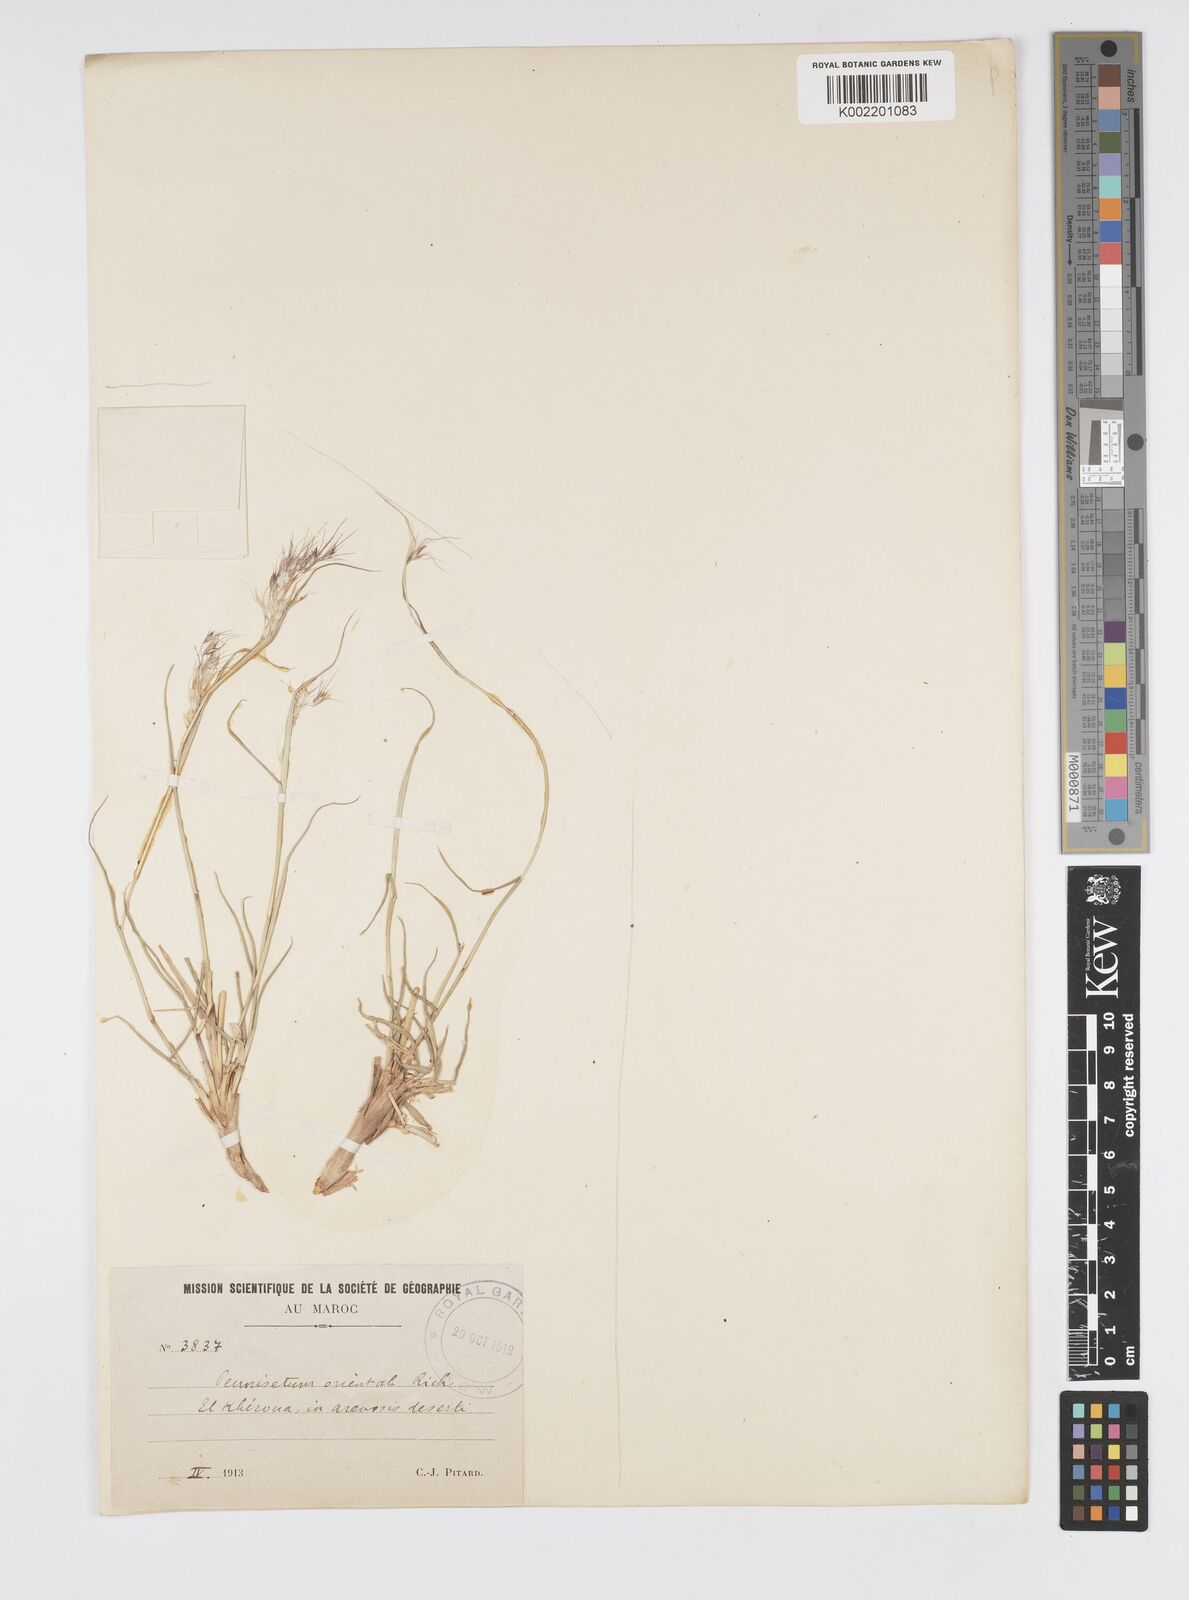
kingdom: Plantae
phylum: Tracheophyta
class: Liliopsida
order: Poales
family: Poaceae
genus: Cenchrus
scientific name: Cenchrus orientalis
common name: Oriental fountain grass
